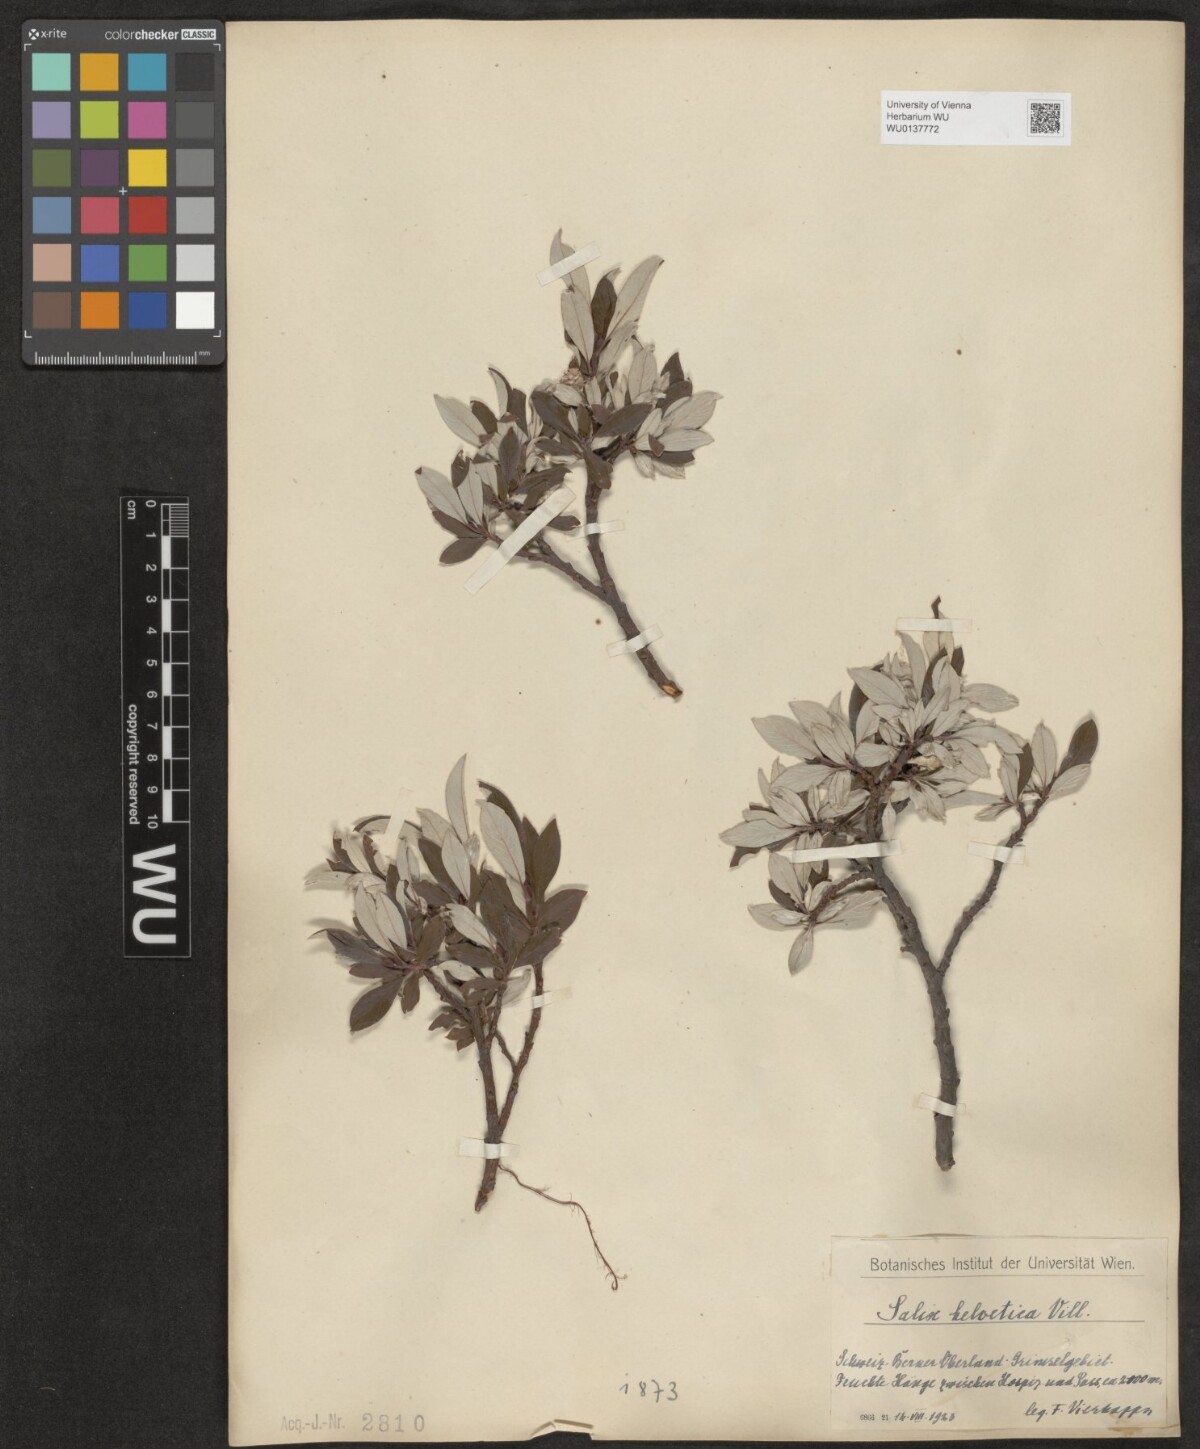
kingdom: Plantae
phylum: Tracheophyta
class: Magnoliopsida
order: Malpighiales
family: Salicaceae
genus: Salix
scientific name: Salix helvetica
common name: Swiss willow
